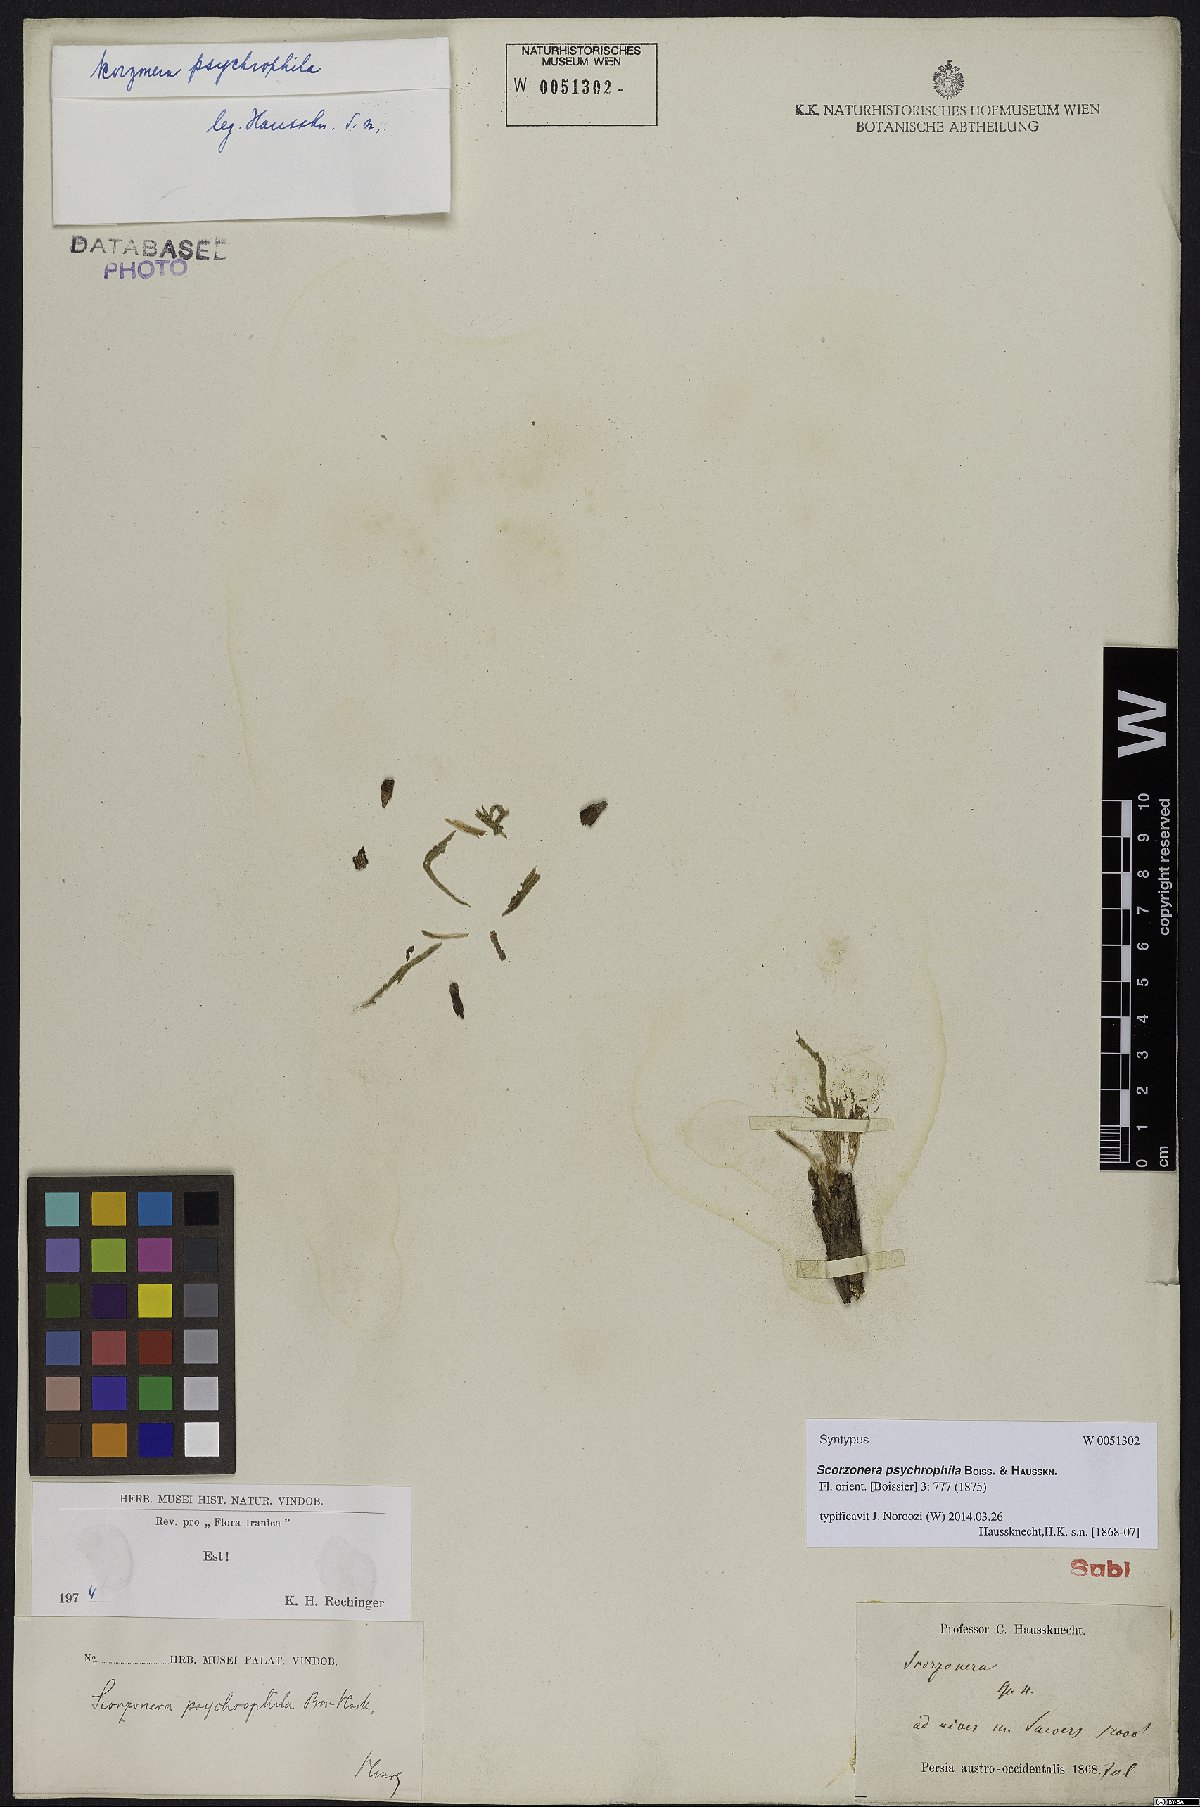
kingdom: Plantae
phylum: Tracheophyta
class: Magnoliopsida
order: Asterales
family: Asteraceae
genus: Gelasia
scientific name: Gelasia psychrophila
